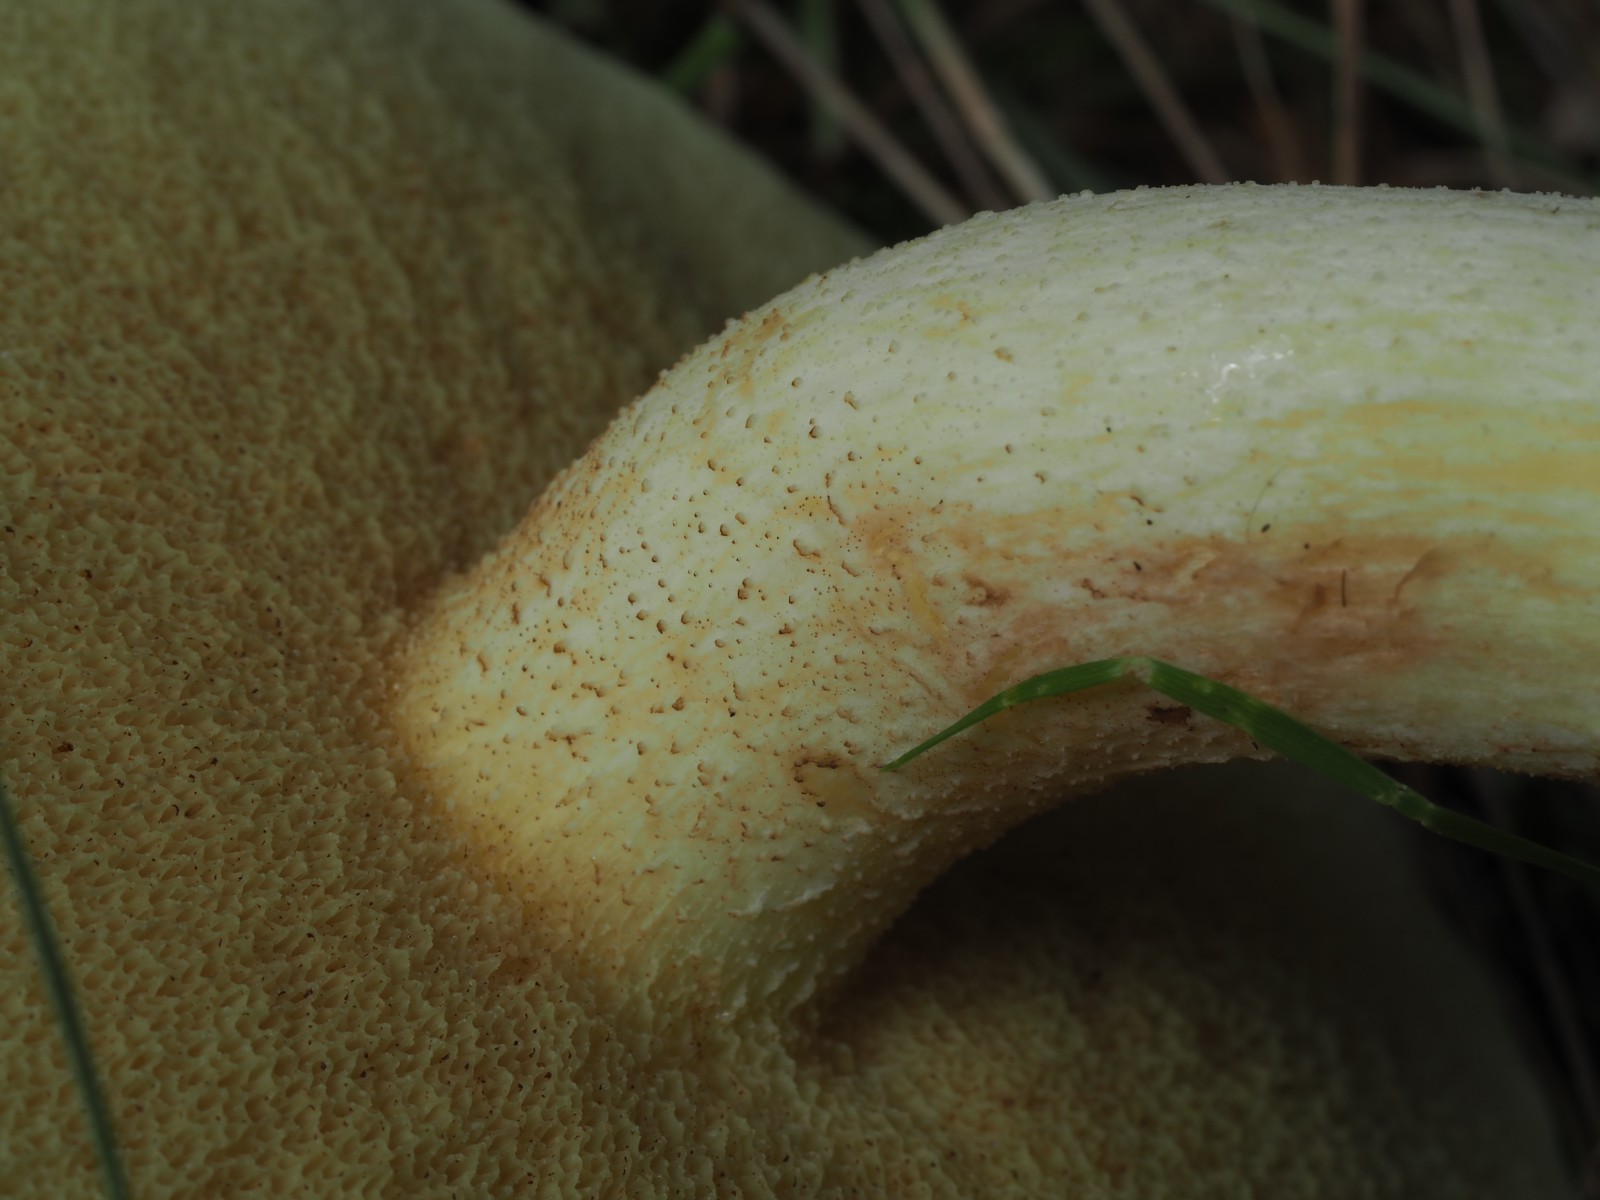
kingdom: Fungi
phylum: Basidiomycota
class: Agaricomycetes
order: Boletales
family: Suillaceae
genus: Suillus
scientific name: Suillus granulatus
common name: kornet slimrørhat
